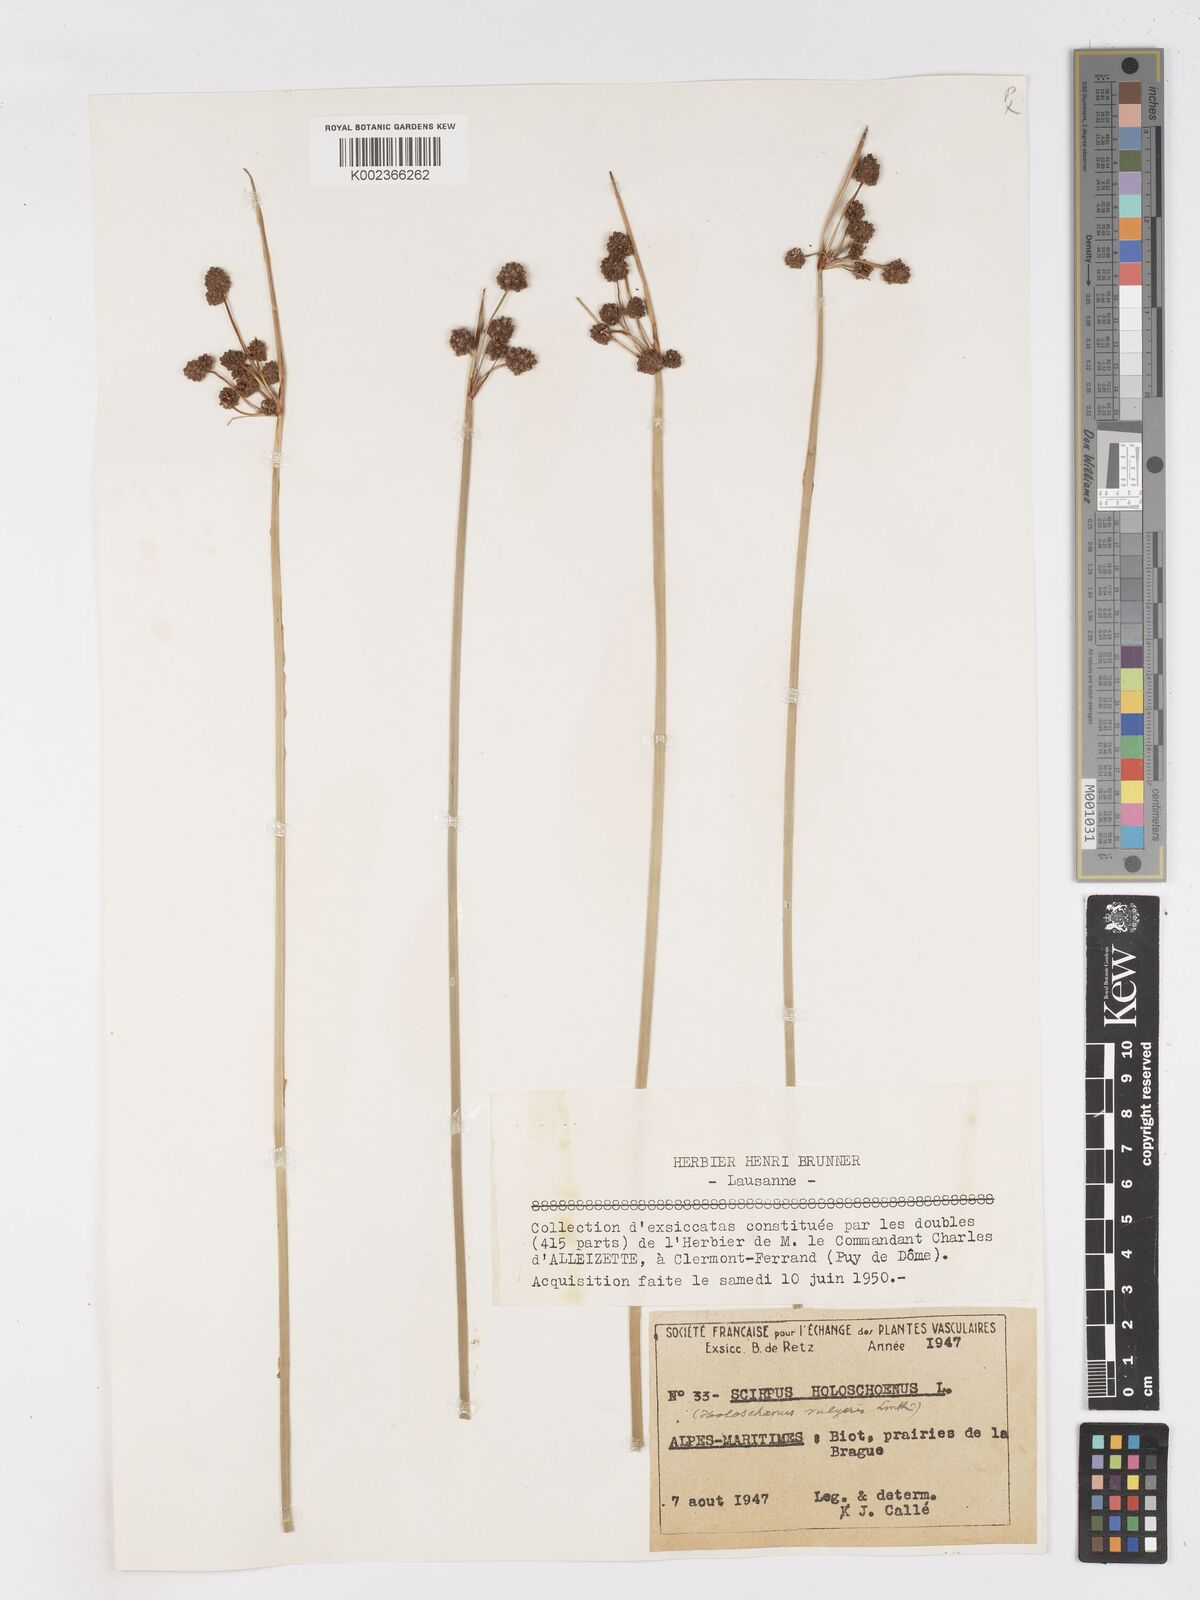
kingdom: Plantae
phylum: Tracheophyta
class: Liliopsida
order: Poales
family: Cyperaceae
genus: Scirpoides
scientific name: Scirpoides holoschoenus
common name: Round-headed club-rush
